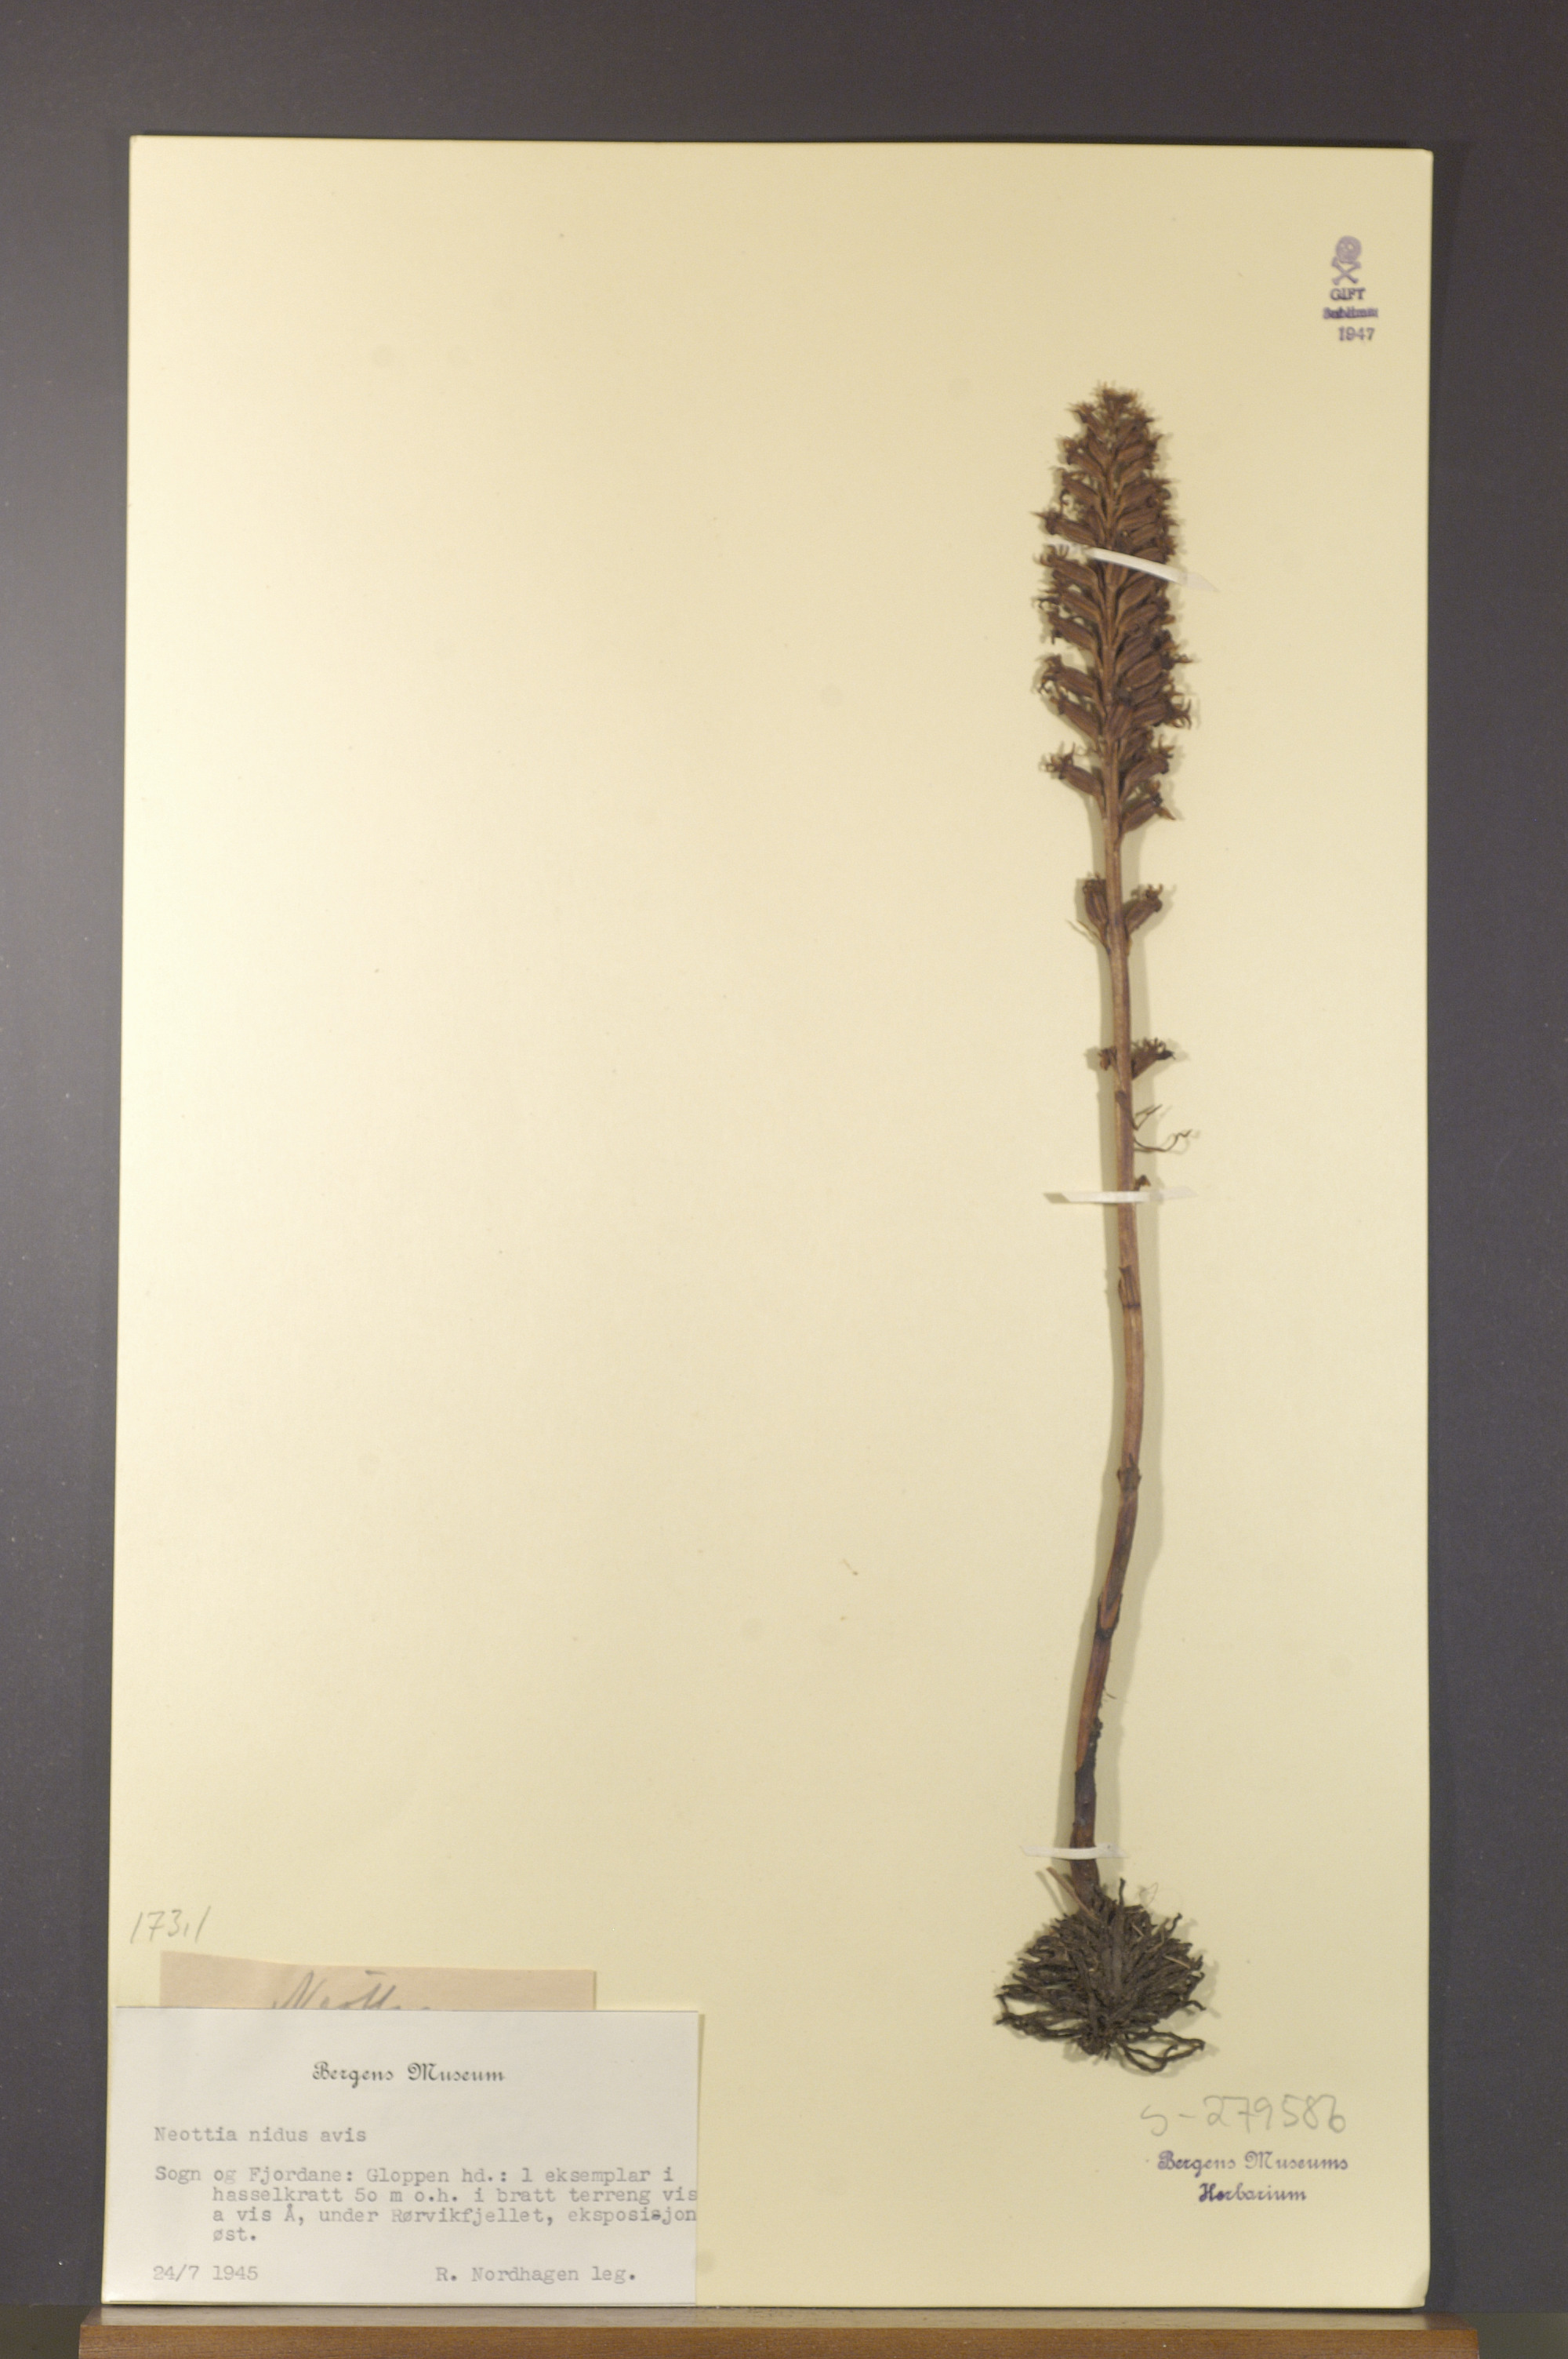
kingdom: Plantae
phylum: Tracheophyta
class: Liliopsida
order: Asparagales
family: Orchidaceae
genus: Neottia
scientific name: Neottia nidus-avis
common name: Bird's-nest orchid
